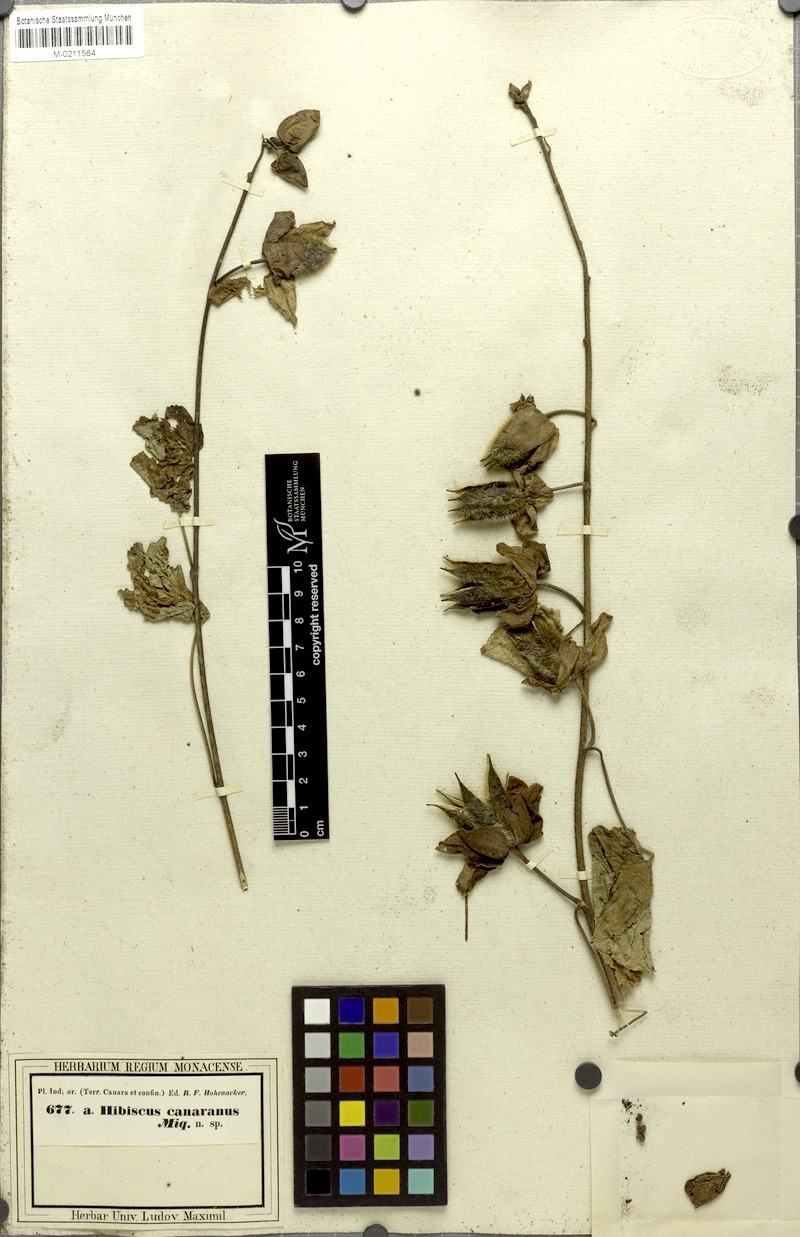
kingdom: Plantae
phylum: Tracheophyta
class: Magnoliopsida
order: Malvales
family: Malvaceae
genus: Abelmoschus
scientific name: Abelmoschus manihot
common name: Sunset muskmallow
